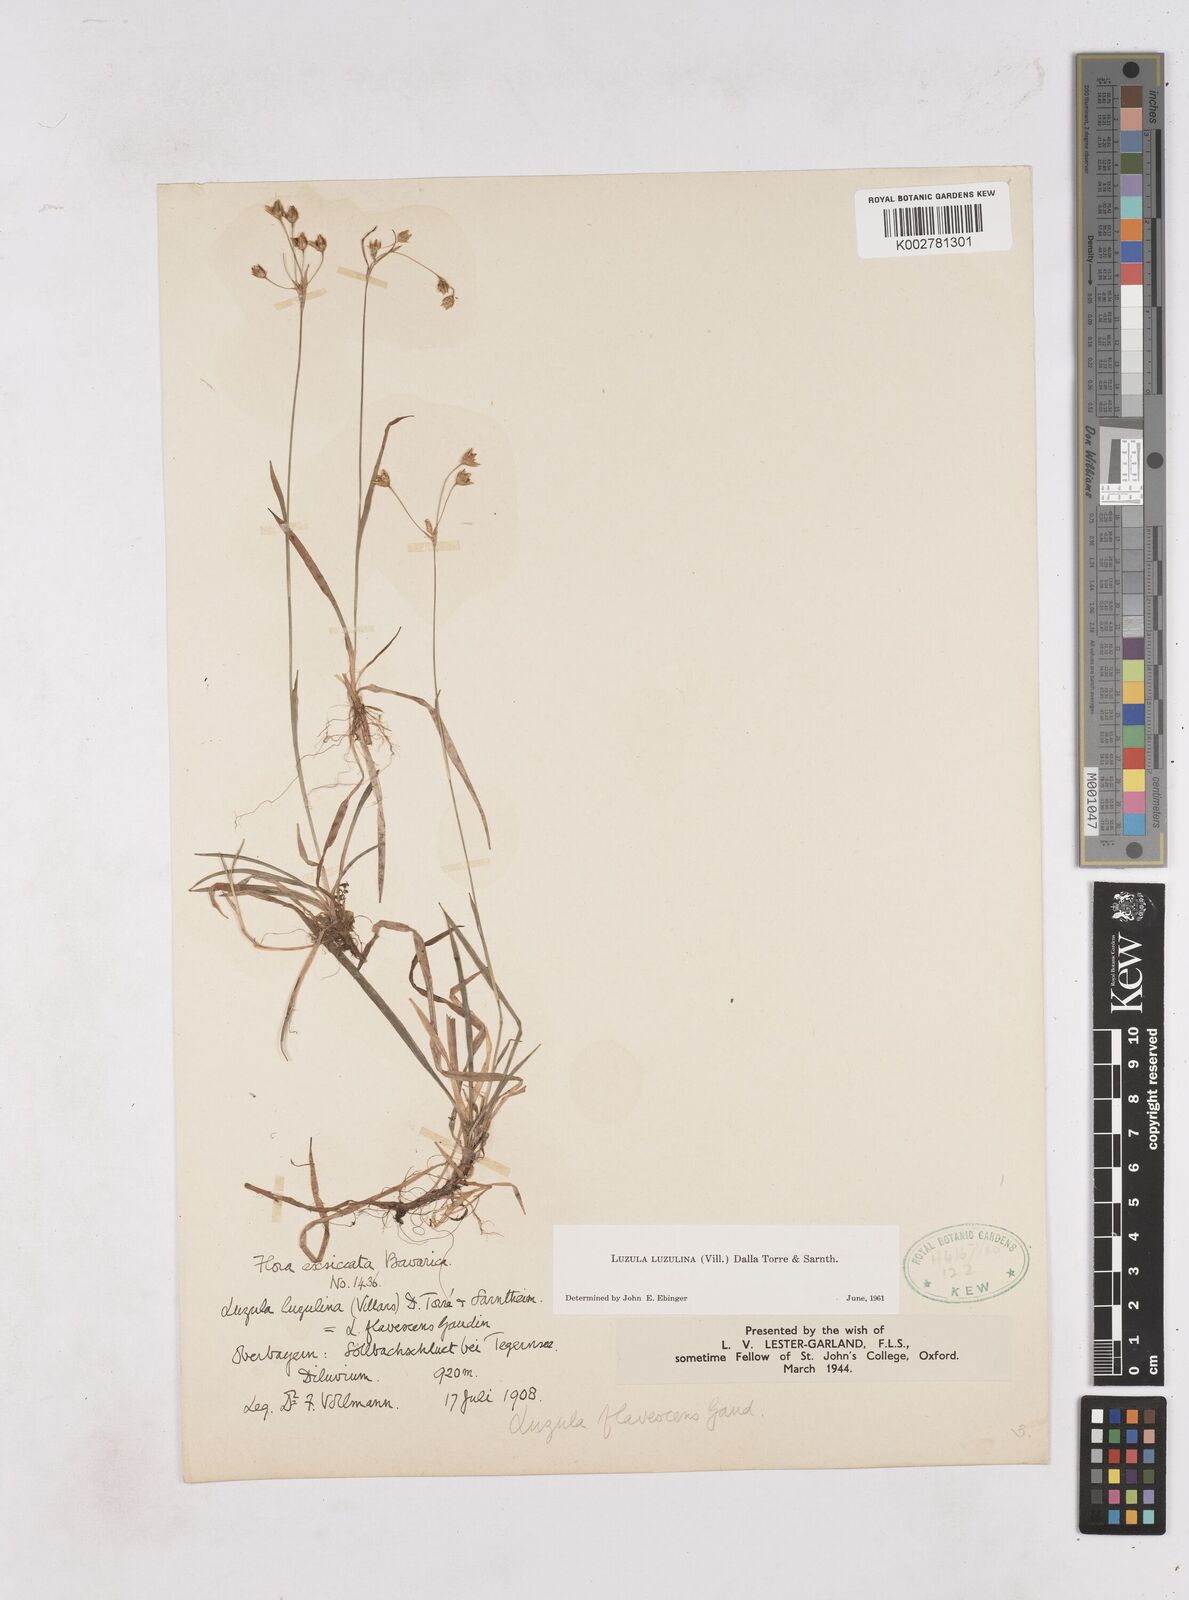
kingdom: Plantae
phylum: Tracheophyta
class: Liliopsida
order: Poales
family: Juncaceae
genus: Luzula
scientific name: Luzula luzulina
